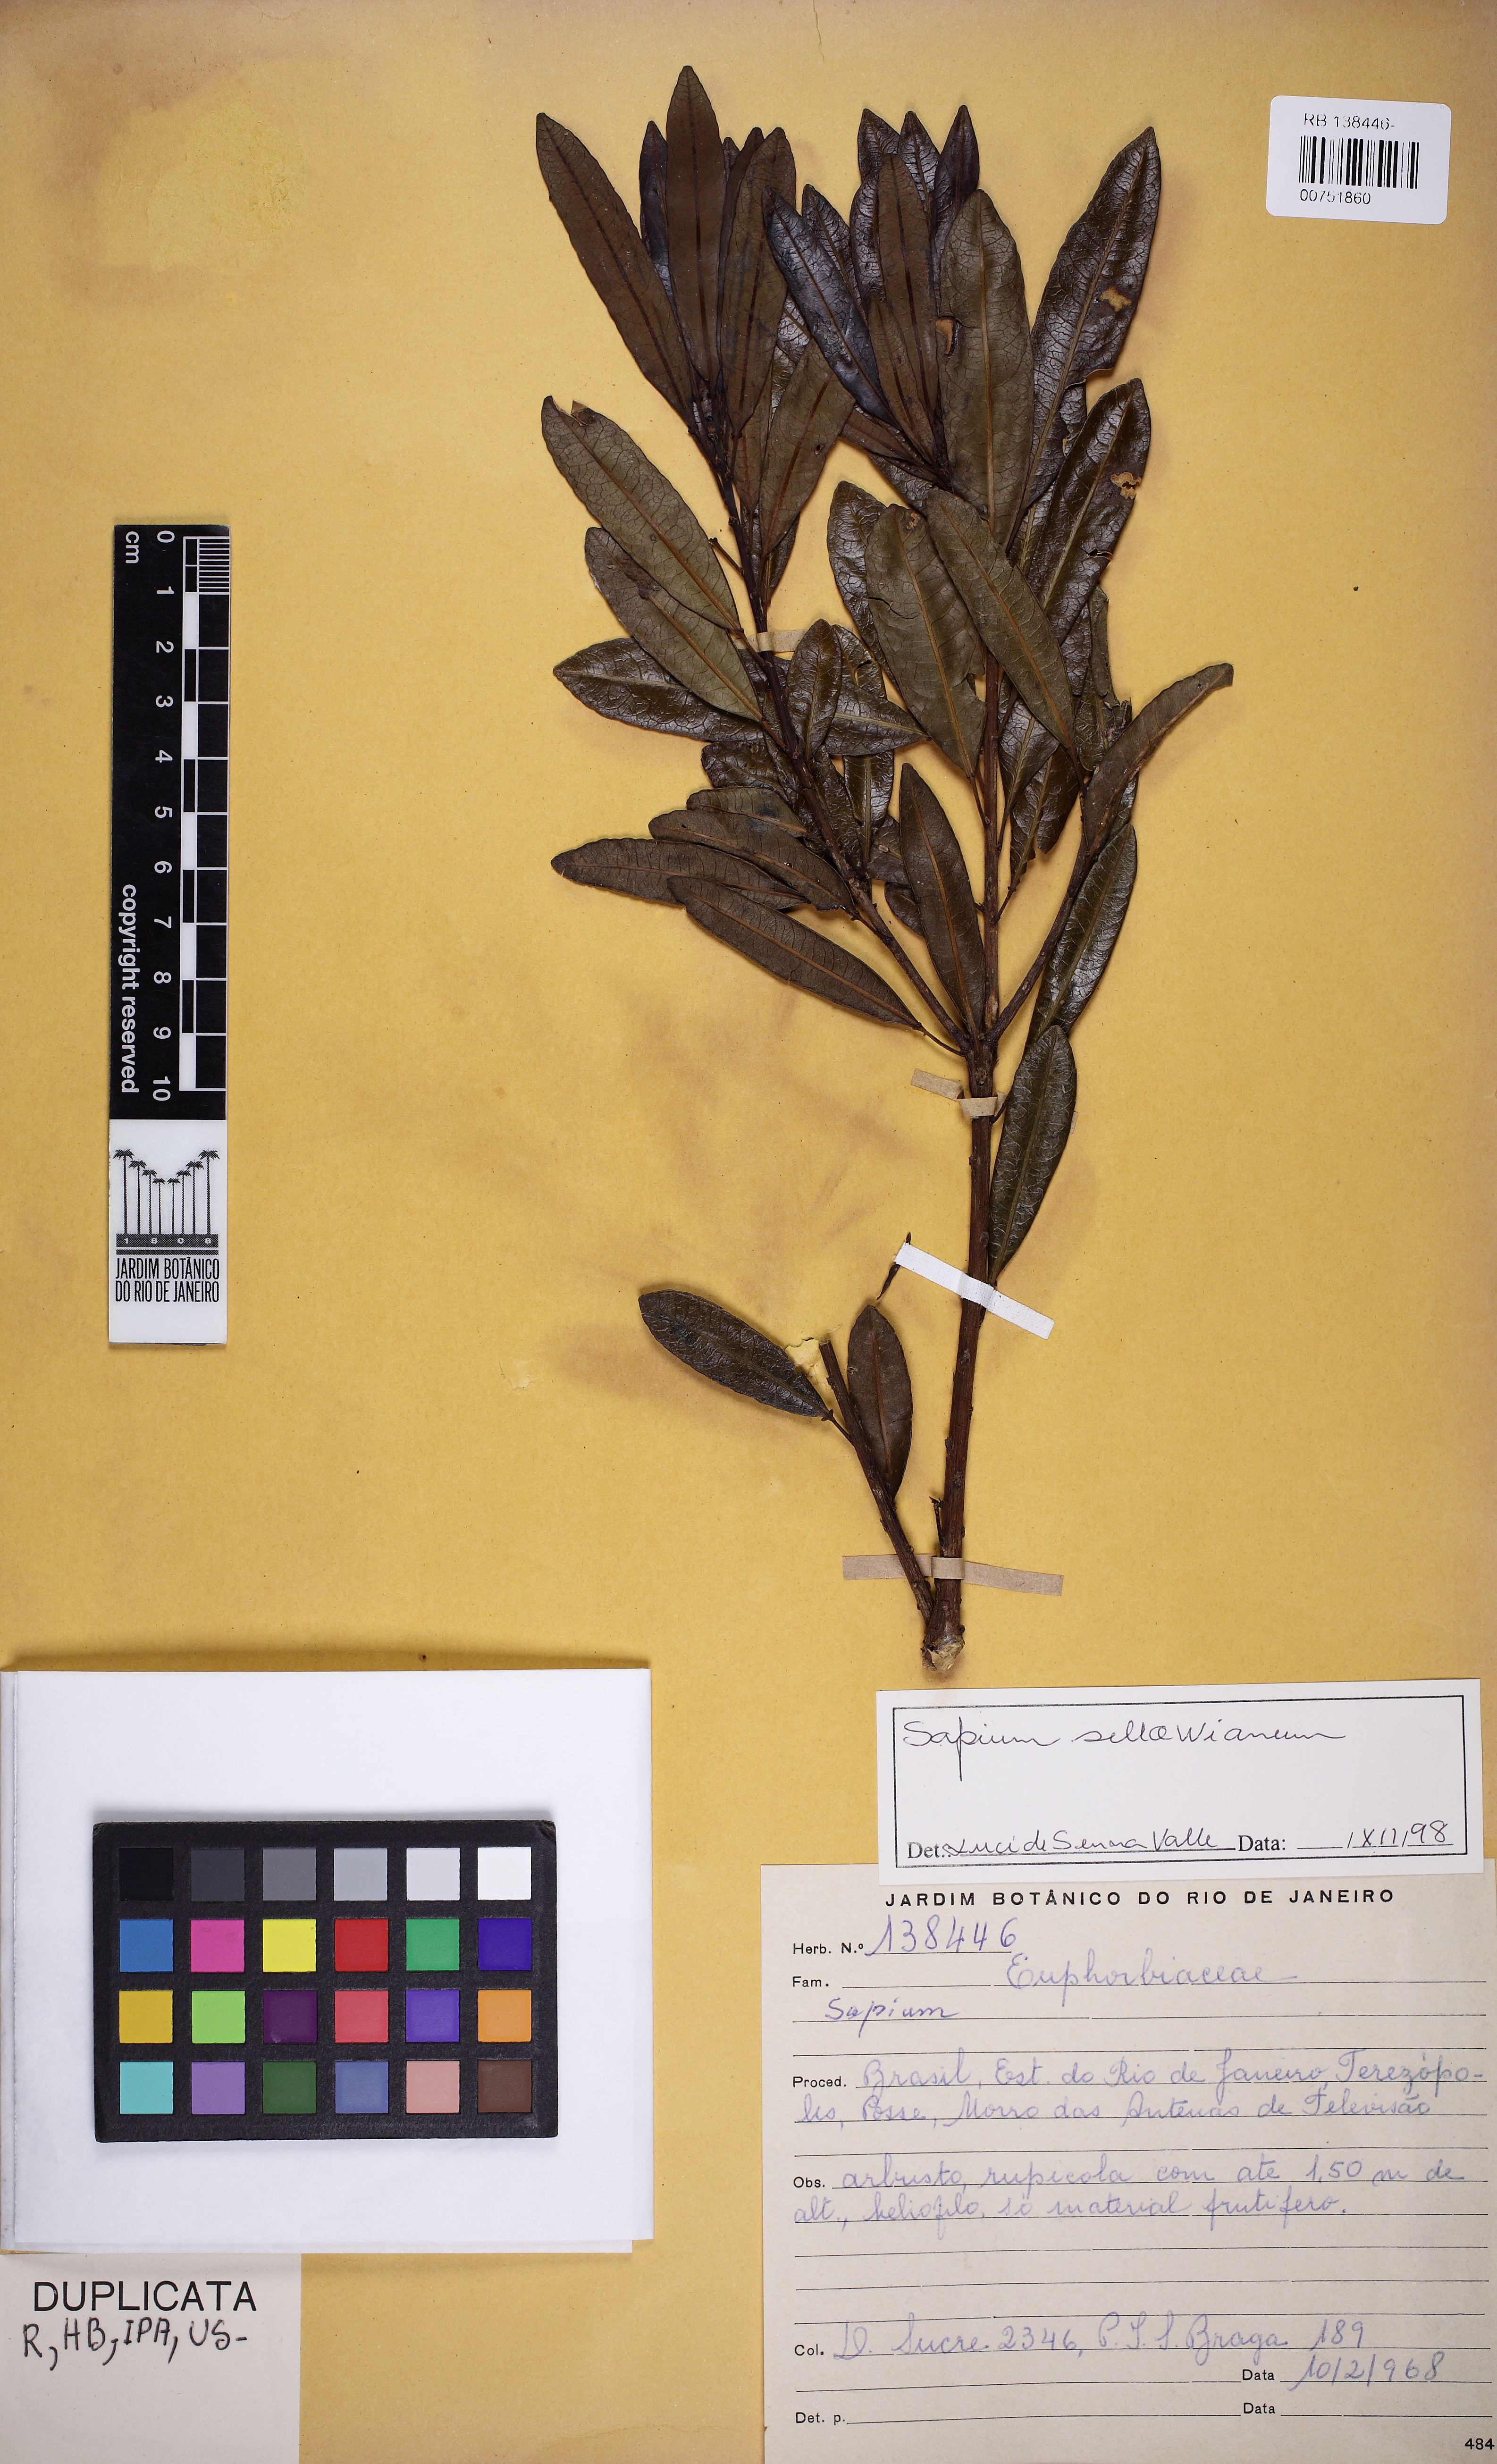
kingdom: Plantae
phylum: Tracheophyta
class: Magnoliopsida
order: Malpighiales
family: Euphorbiaceae
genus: Sapium
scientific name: Sapium sellowianum
